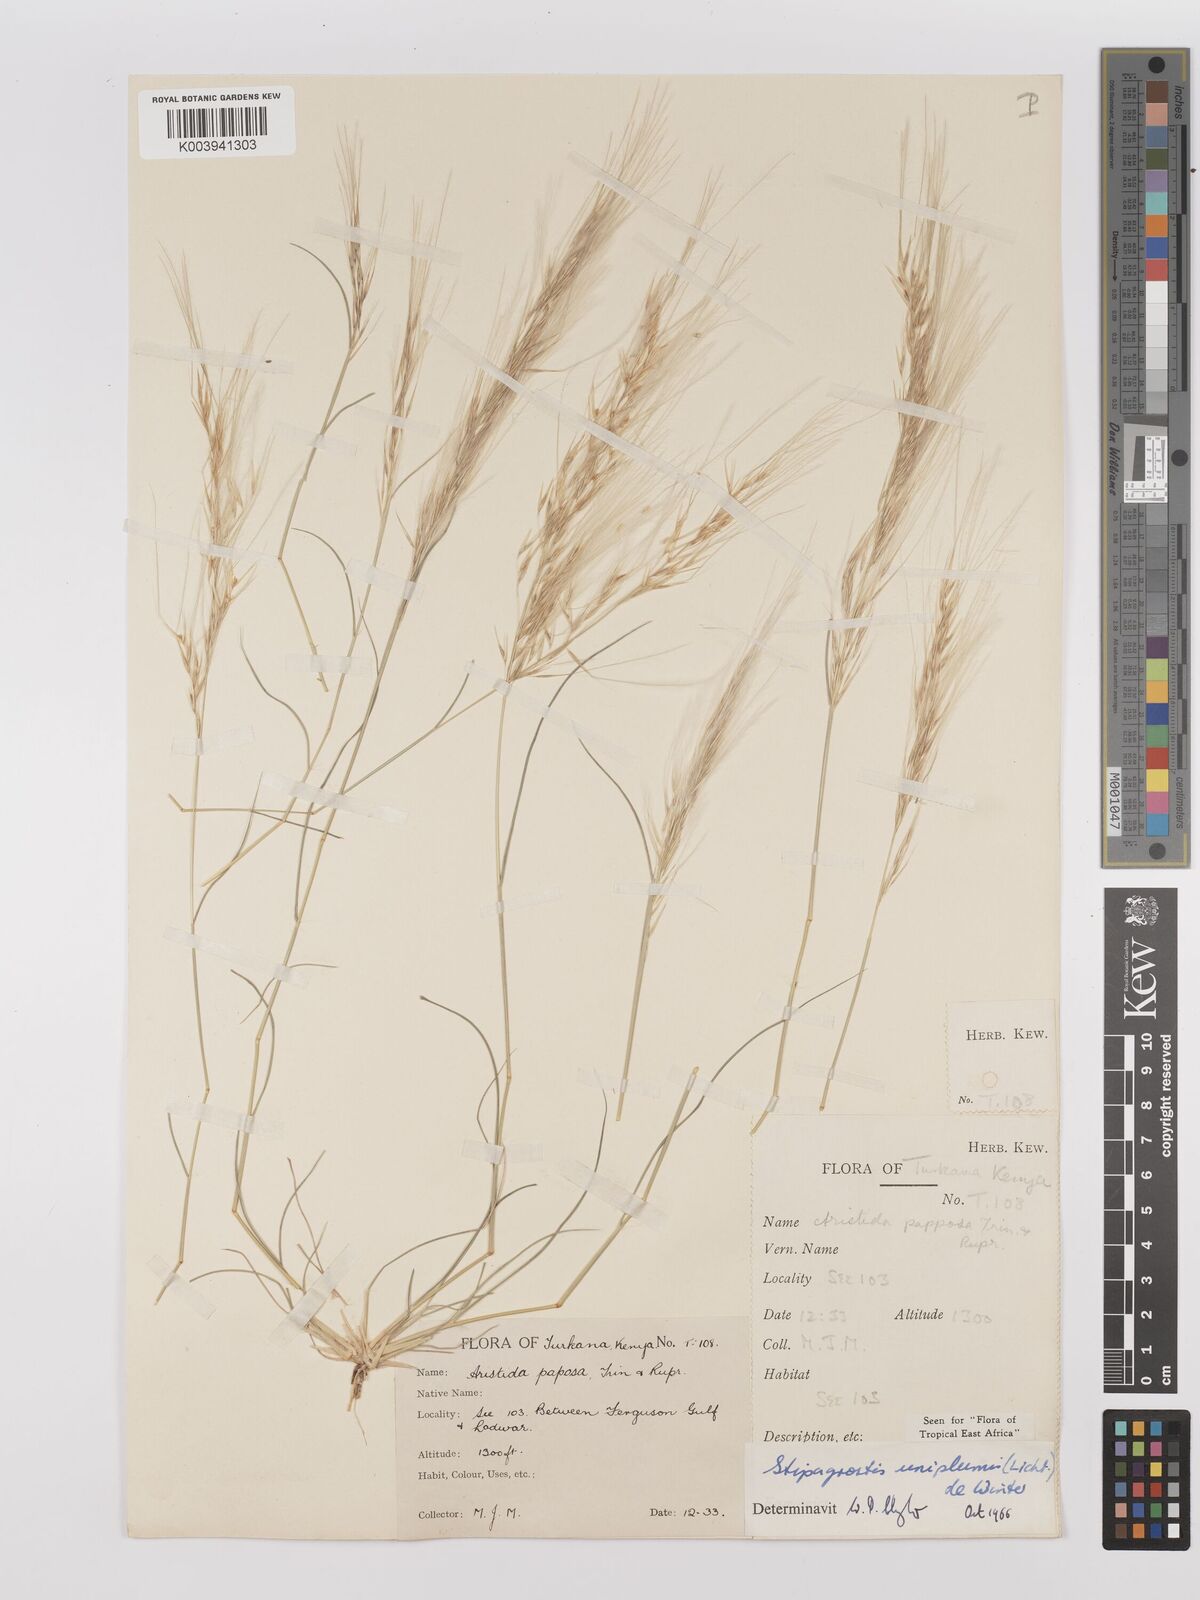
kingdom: Plantae
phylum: Tracheophyta
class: Liliopsida
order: Poales
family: Poaceae
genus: Stipagrostis
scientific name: Stipagrostis uniplumis
